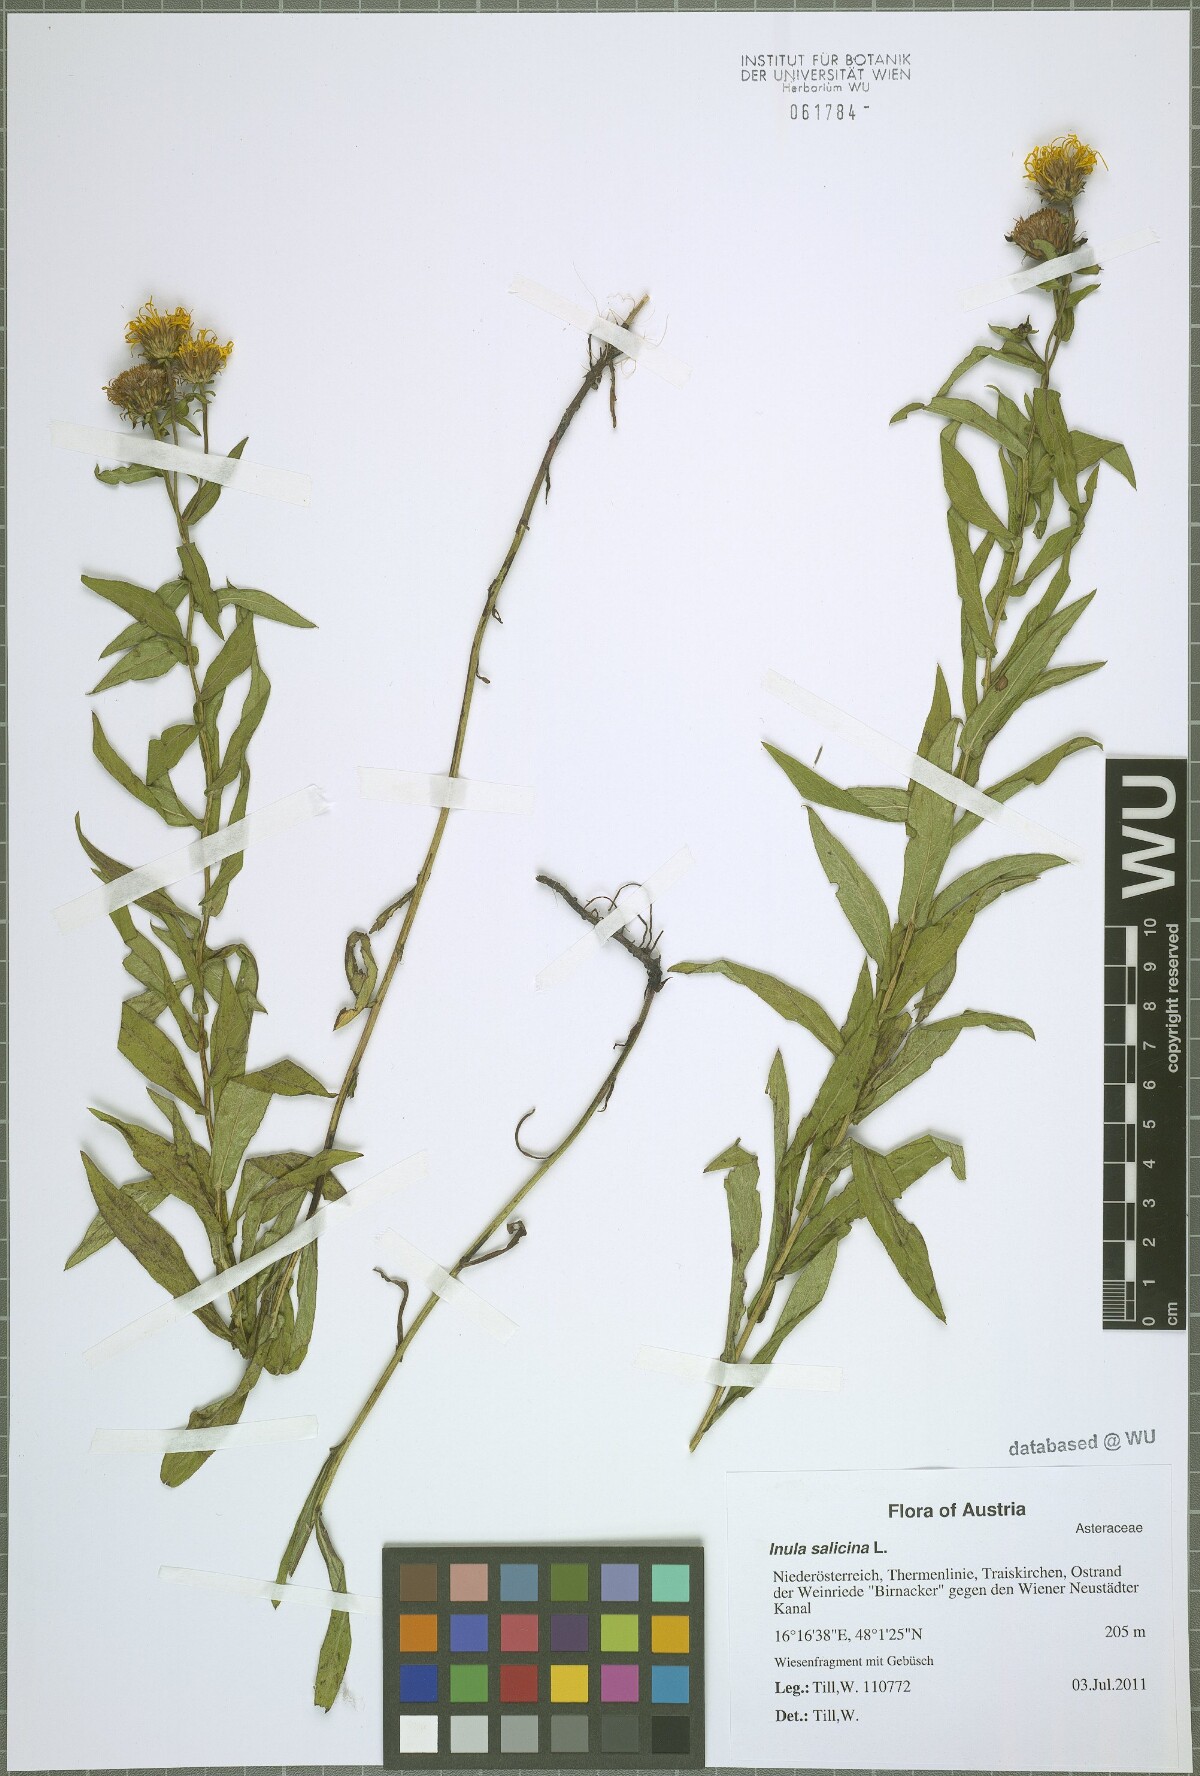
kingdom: Plantae
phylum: Tracheophyta
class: Magnoliopsida
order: Asterales
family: Asteraceae
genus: Pentanema
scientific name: Pentanema salicinum
